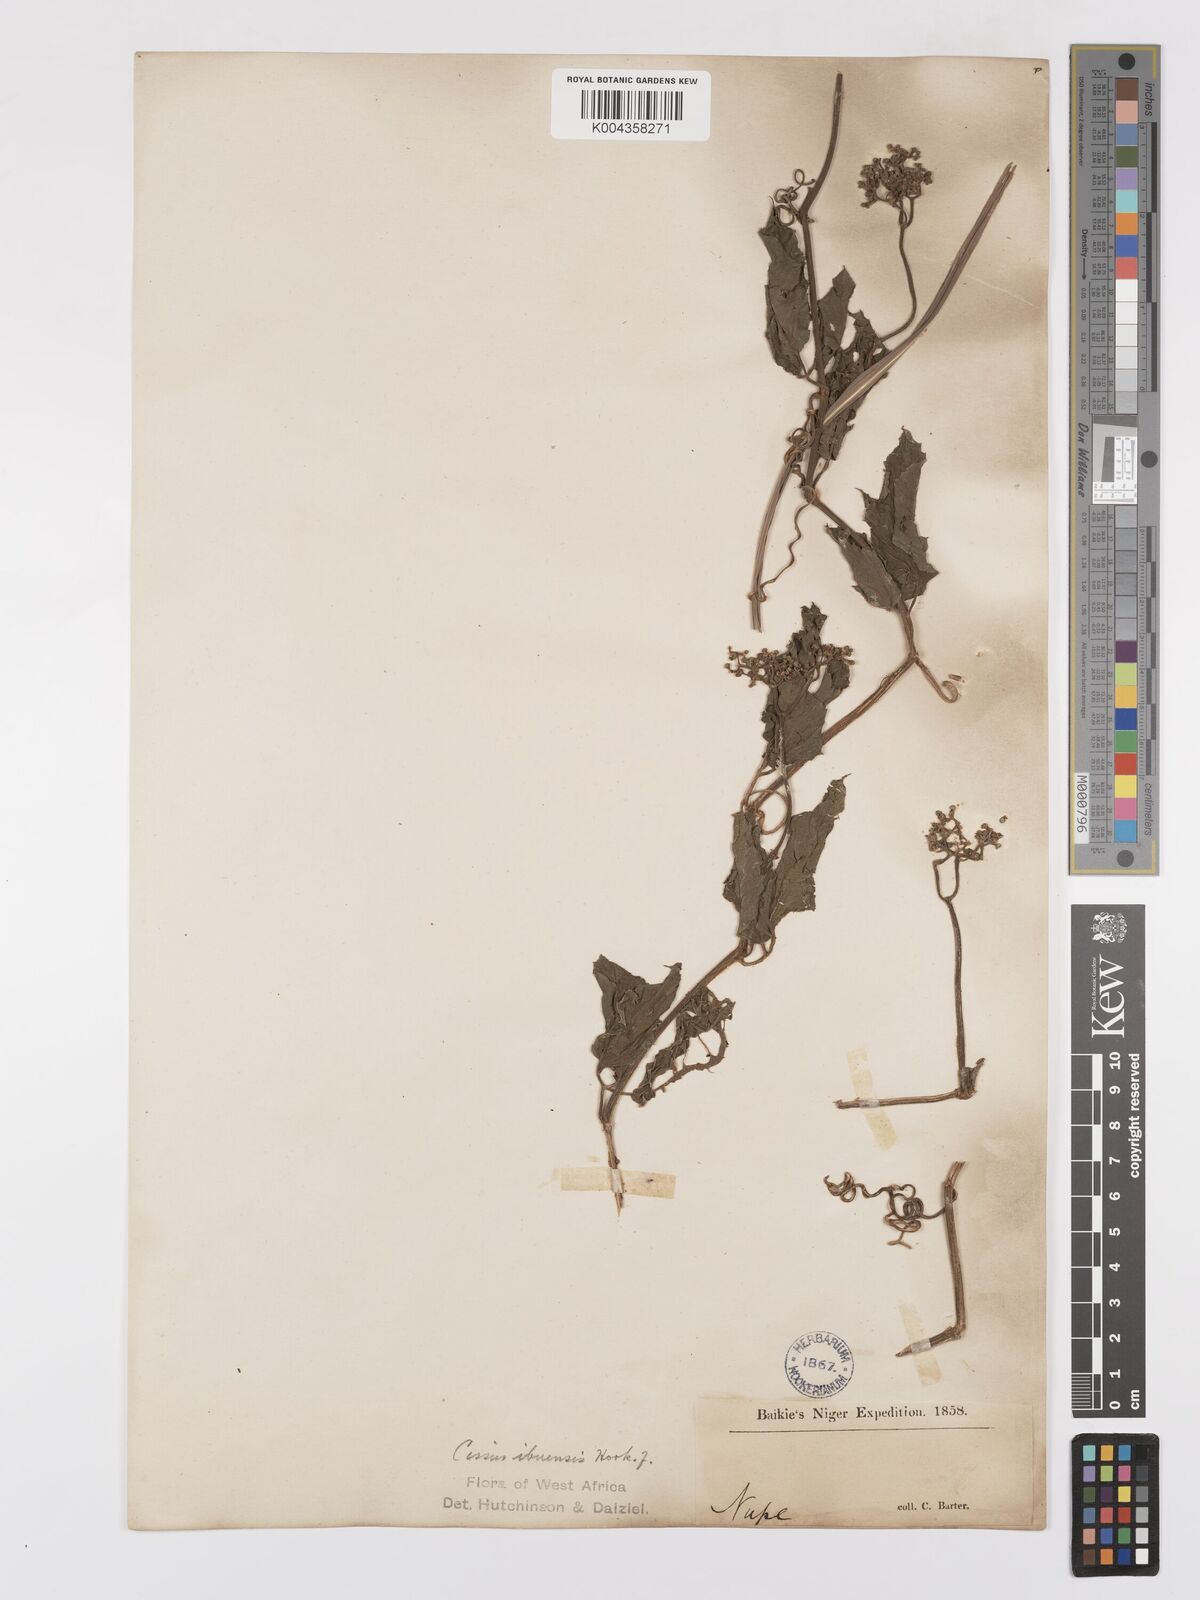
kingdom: Plantae
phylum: Tracheophyta
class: Magnoliopsida
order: Vitales
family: Vitaceae
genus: Afrocayratia
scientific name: Afrocayratia ibuensis
